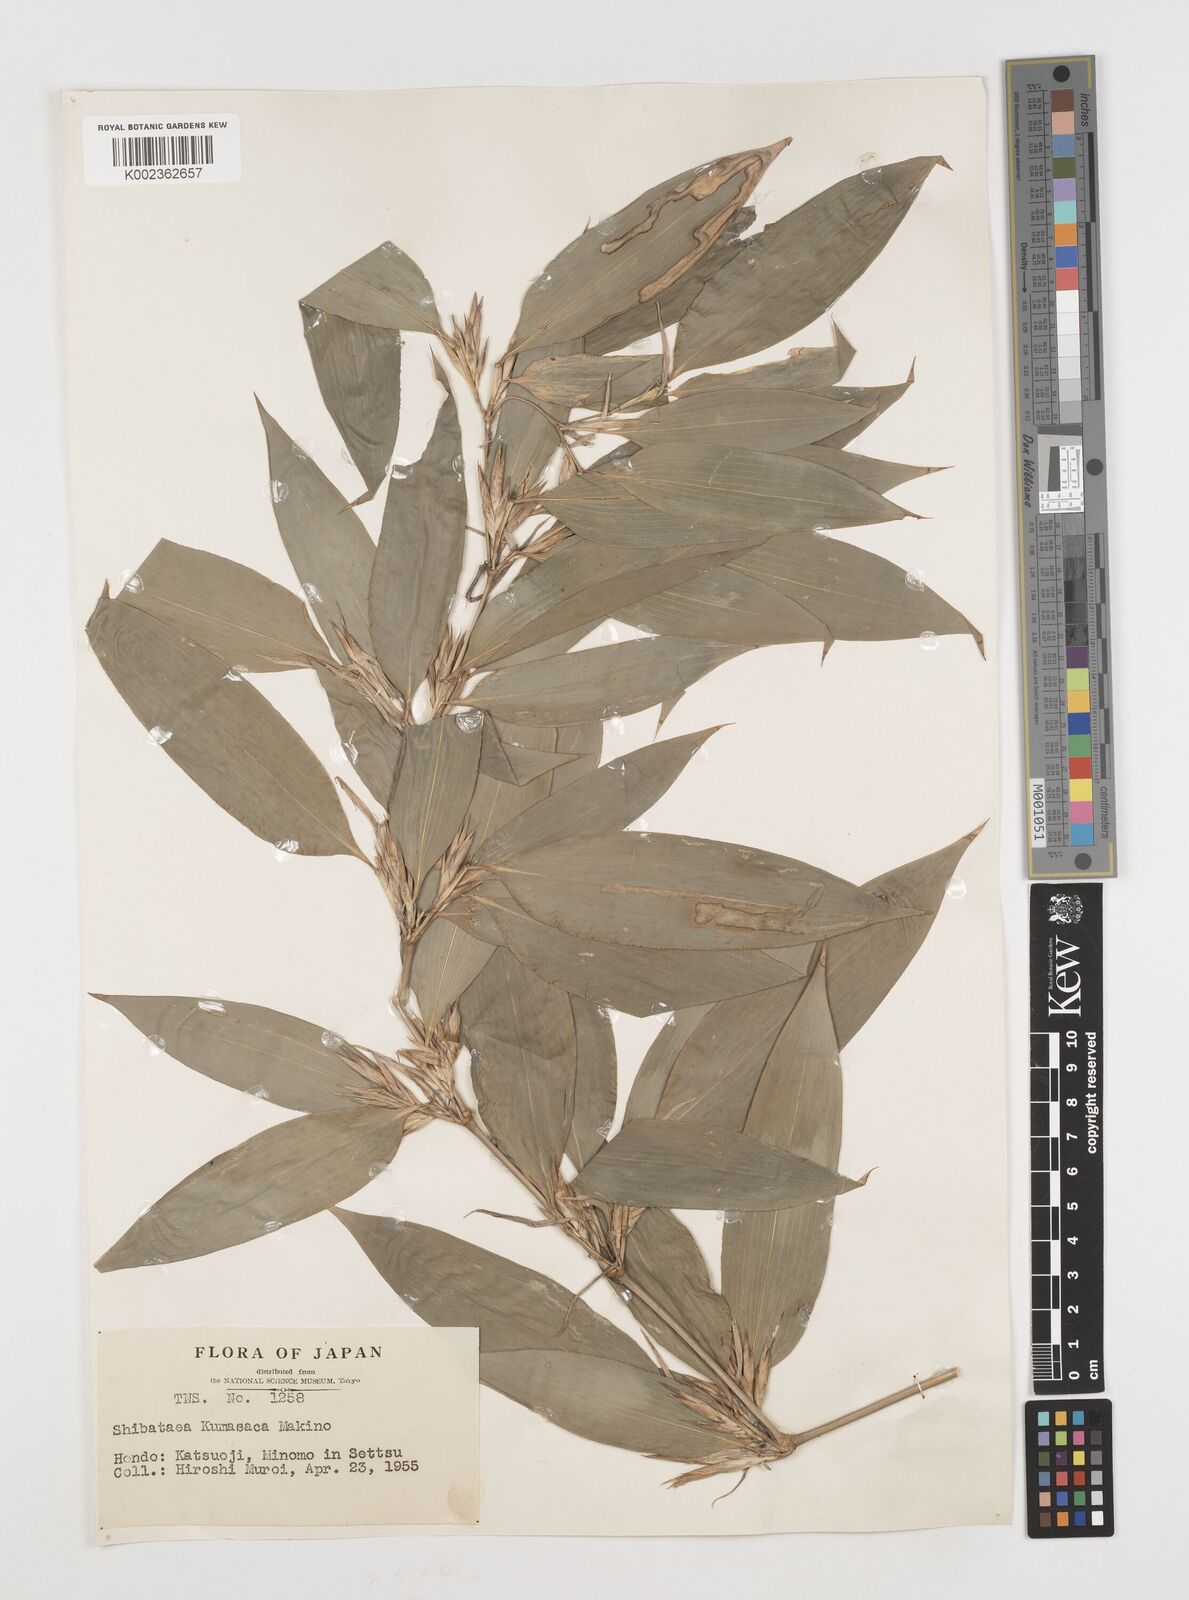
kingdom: Plantae
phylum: Tracheophyta
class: Liliopsida
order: Poales
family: Poaceae
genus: Shibataea
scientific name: Shibataea kumasasa
